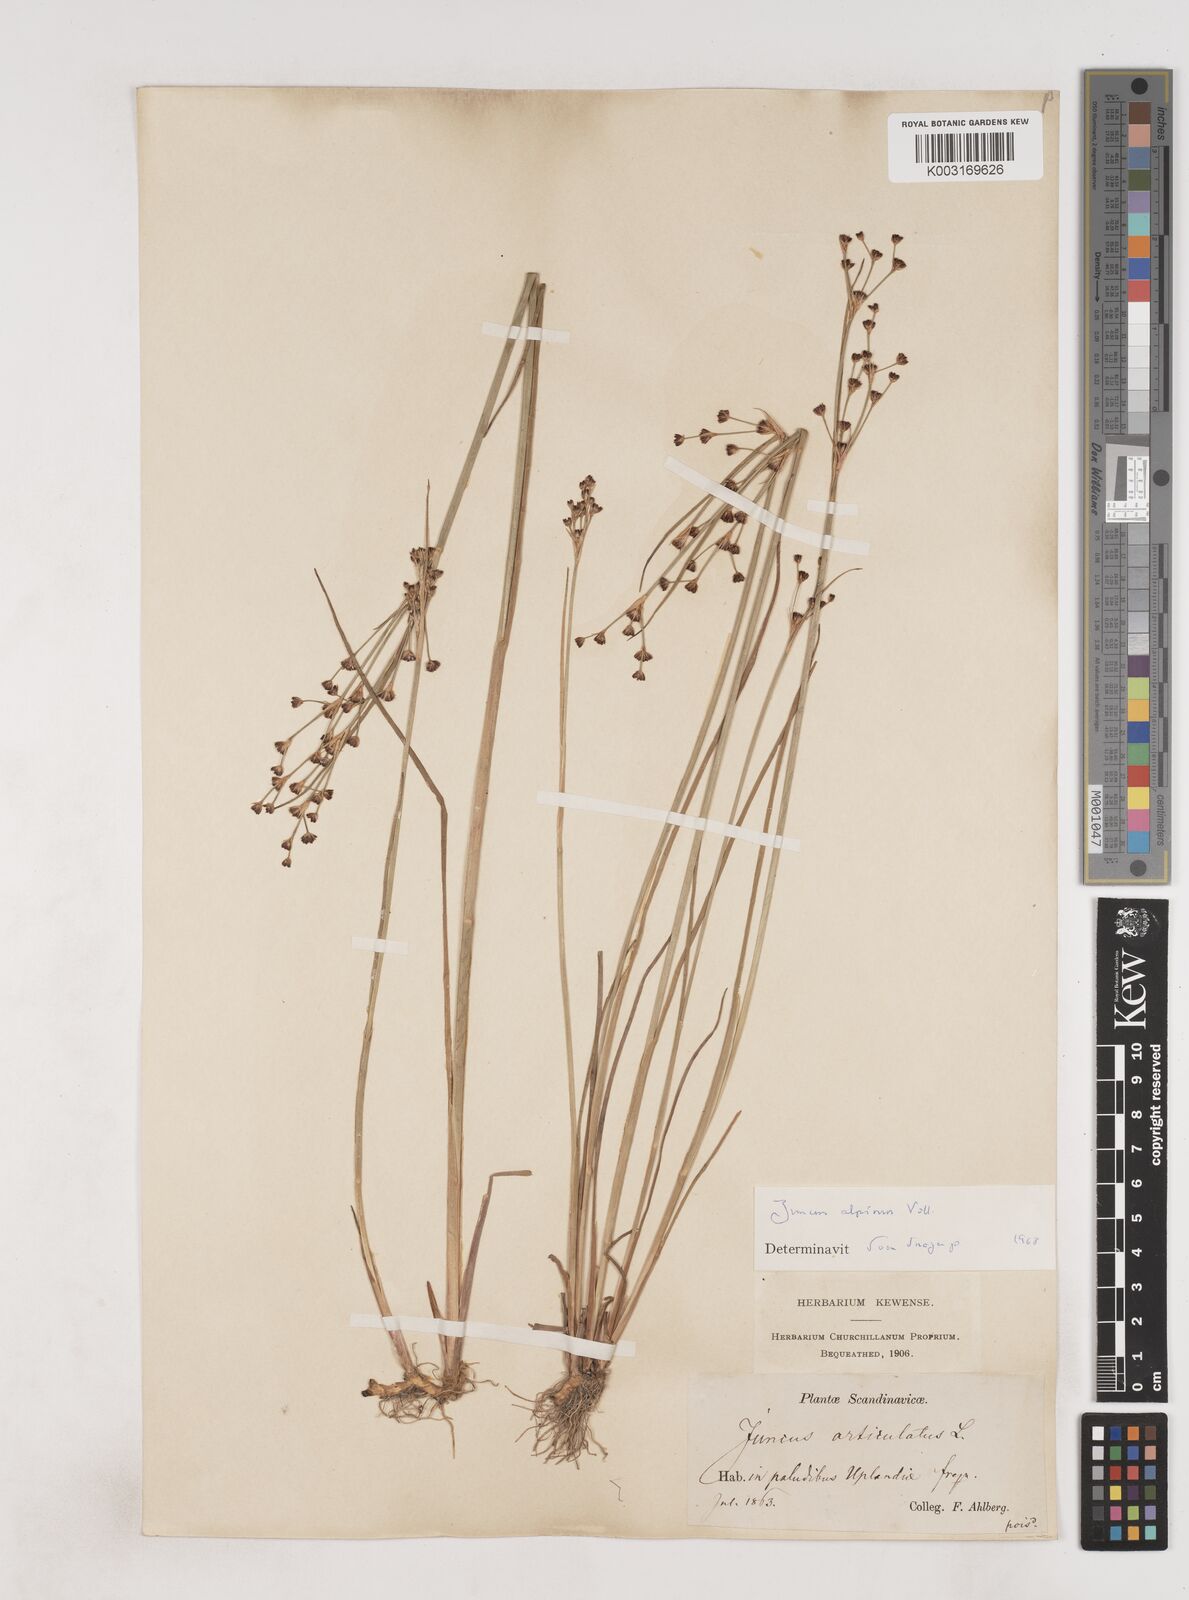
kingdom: Plantae
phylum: Tracheophyta
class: Liliopsida
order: Poales
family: Juncaceae
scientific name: Juncaceae
